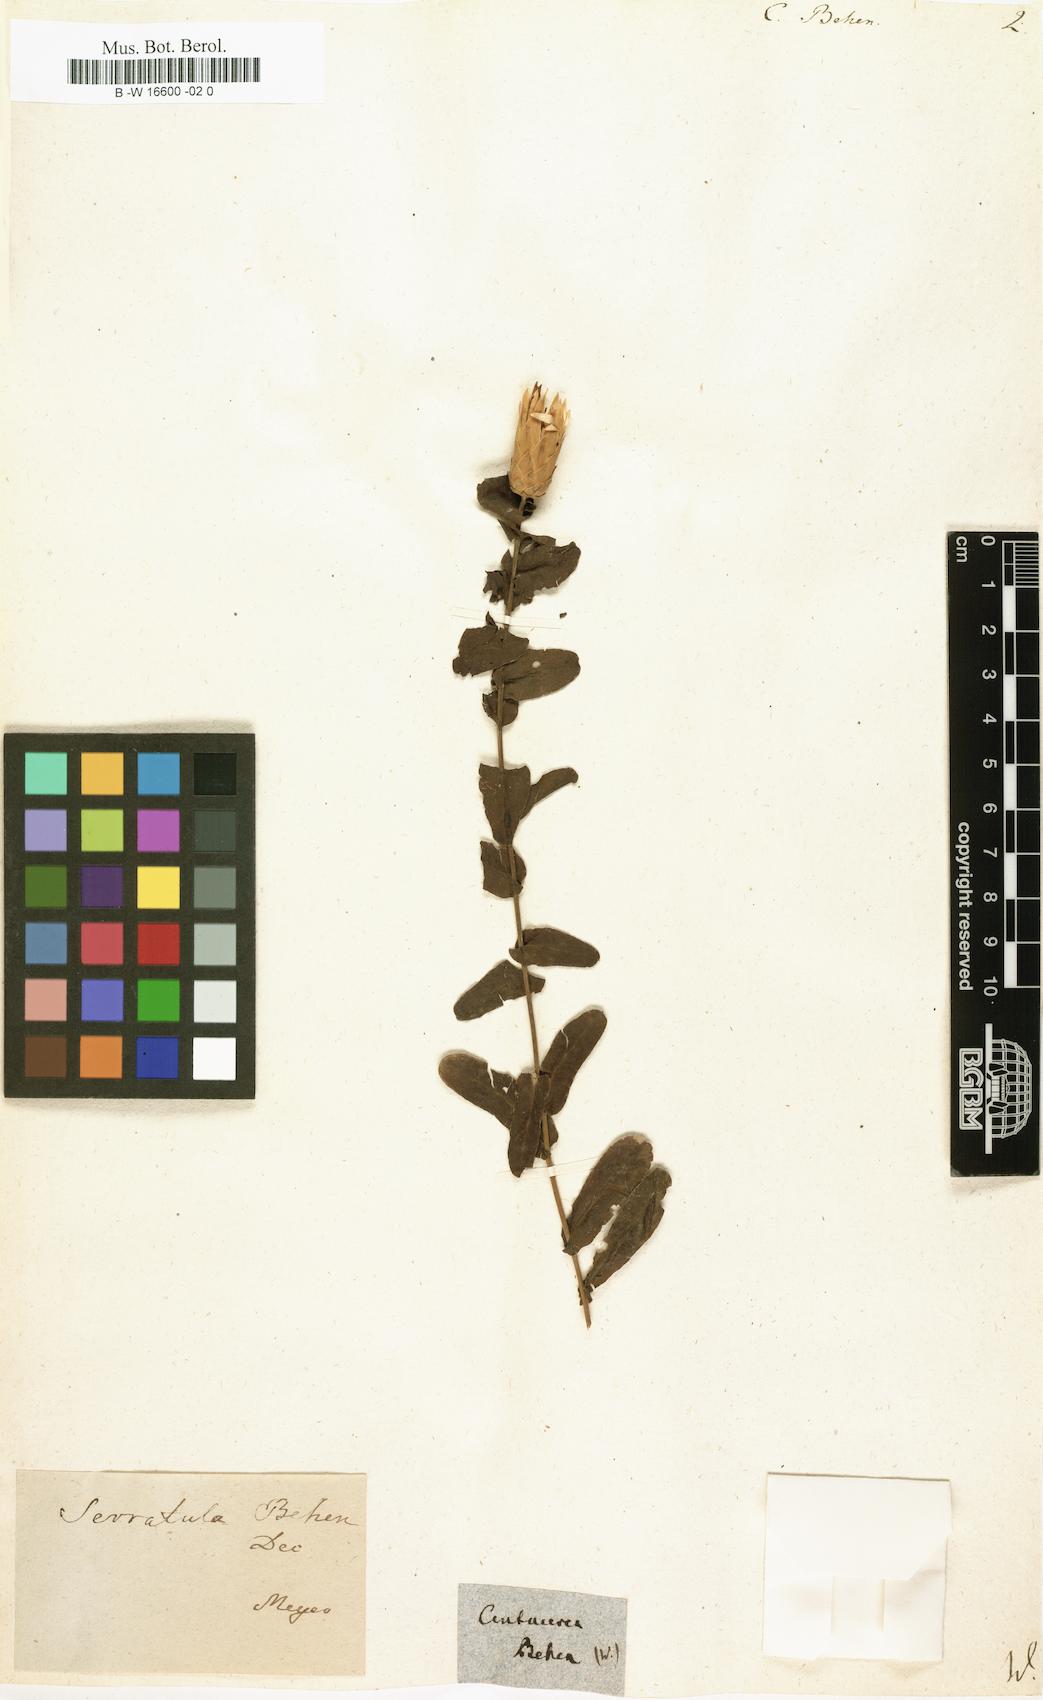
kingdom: Plantae
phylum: Tracheophyta
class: Magnoliopsida
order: Asterales
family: Asteraceae
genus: Centaurea
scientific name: Centaurea behen
